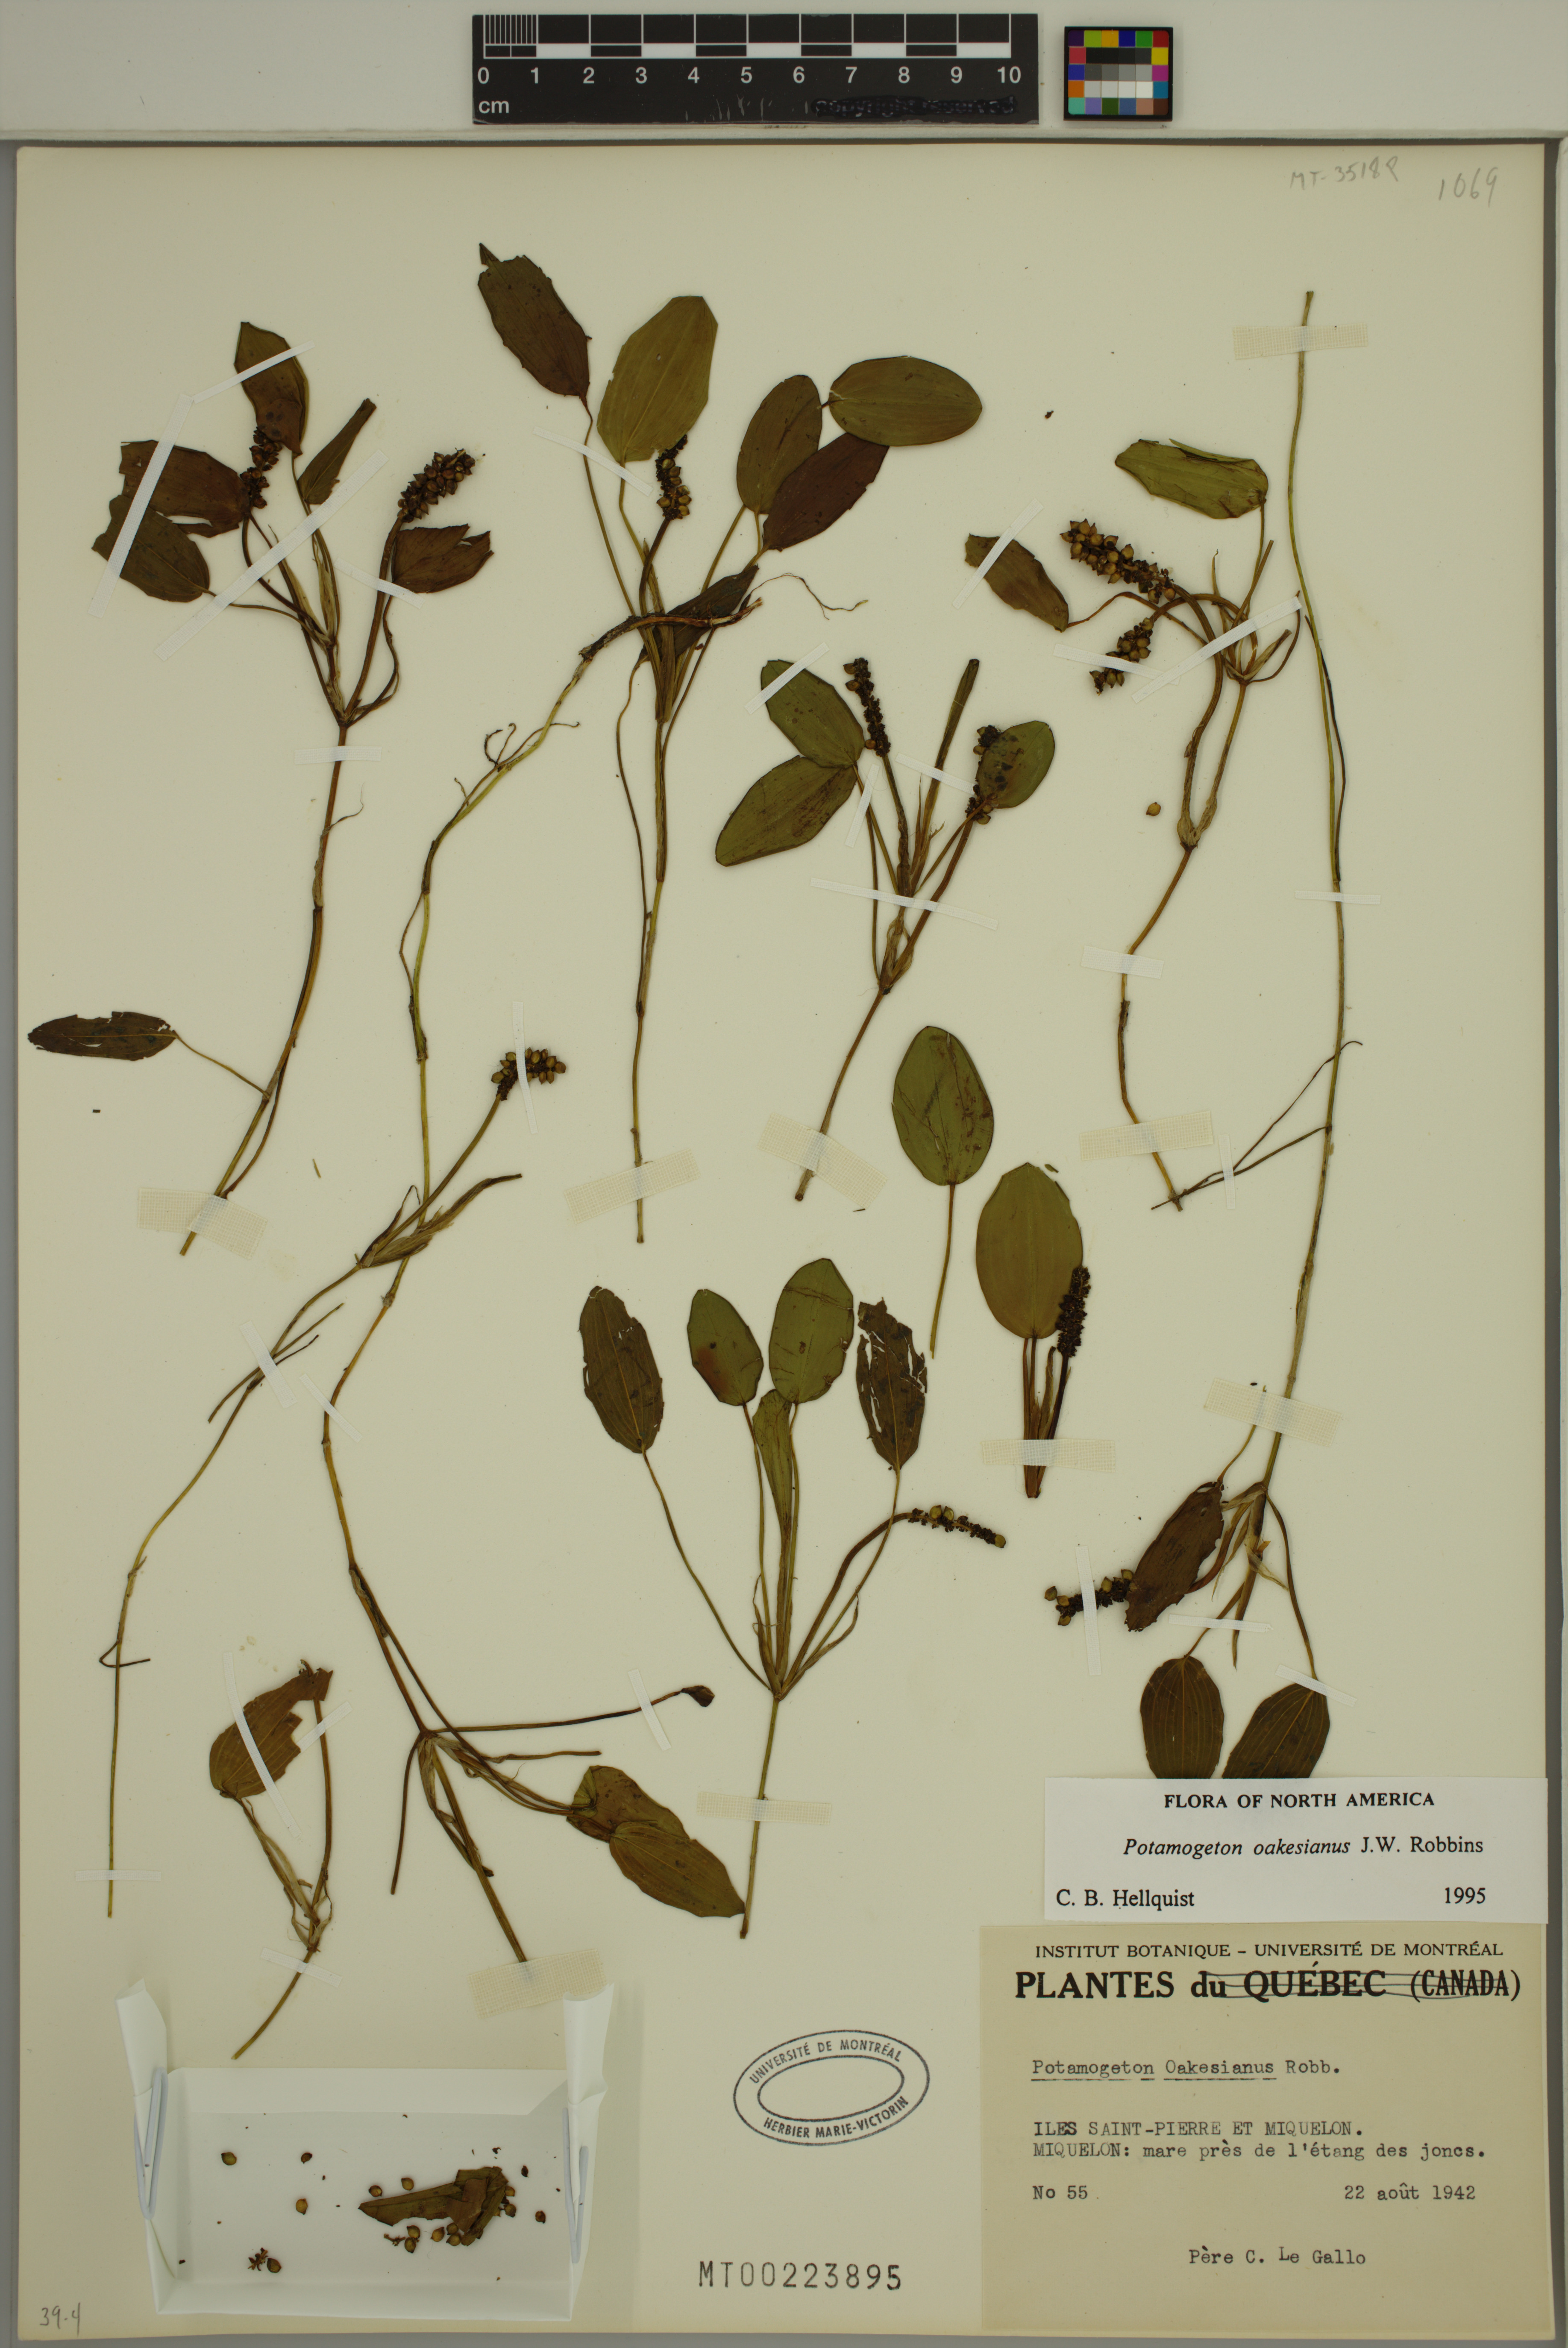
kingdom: Plantae
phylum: Tracheophyta
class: Liliopsida
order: Alismatales
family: Potamogetonaceae
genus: Potamogeton
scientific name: Potamogeton oakesianus
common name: Oakes' pondweed
